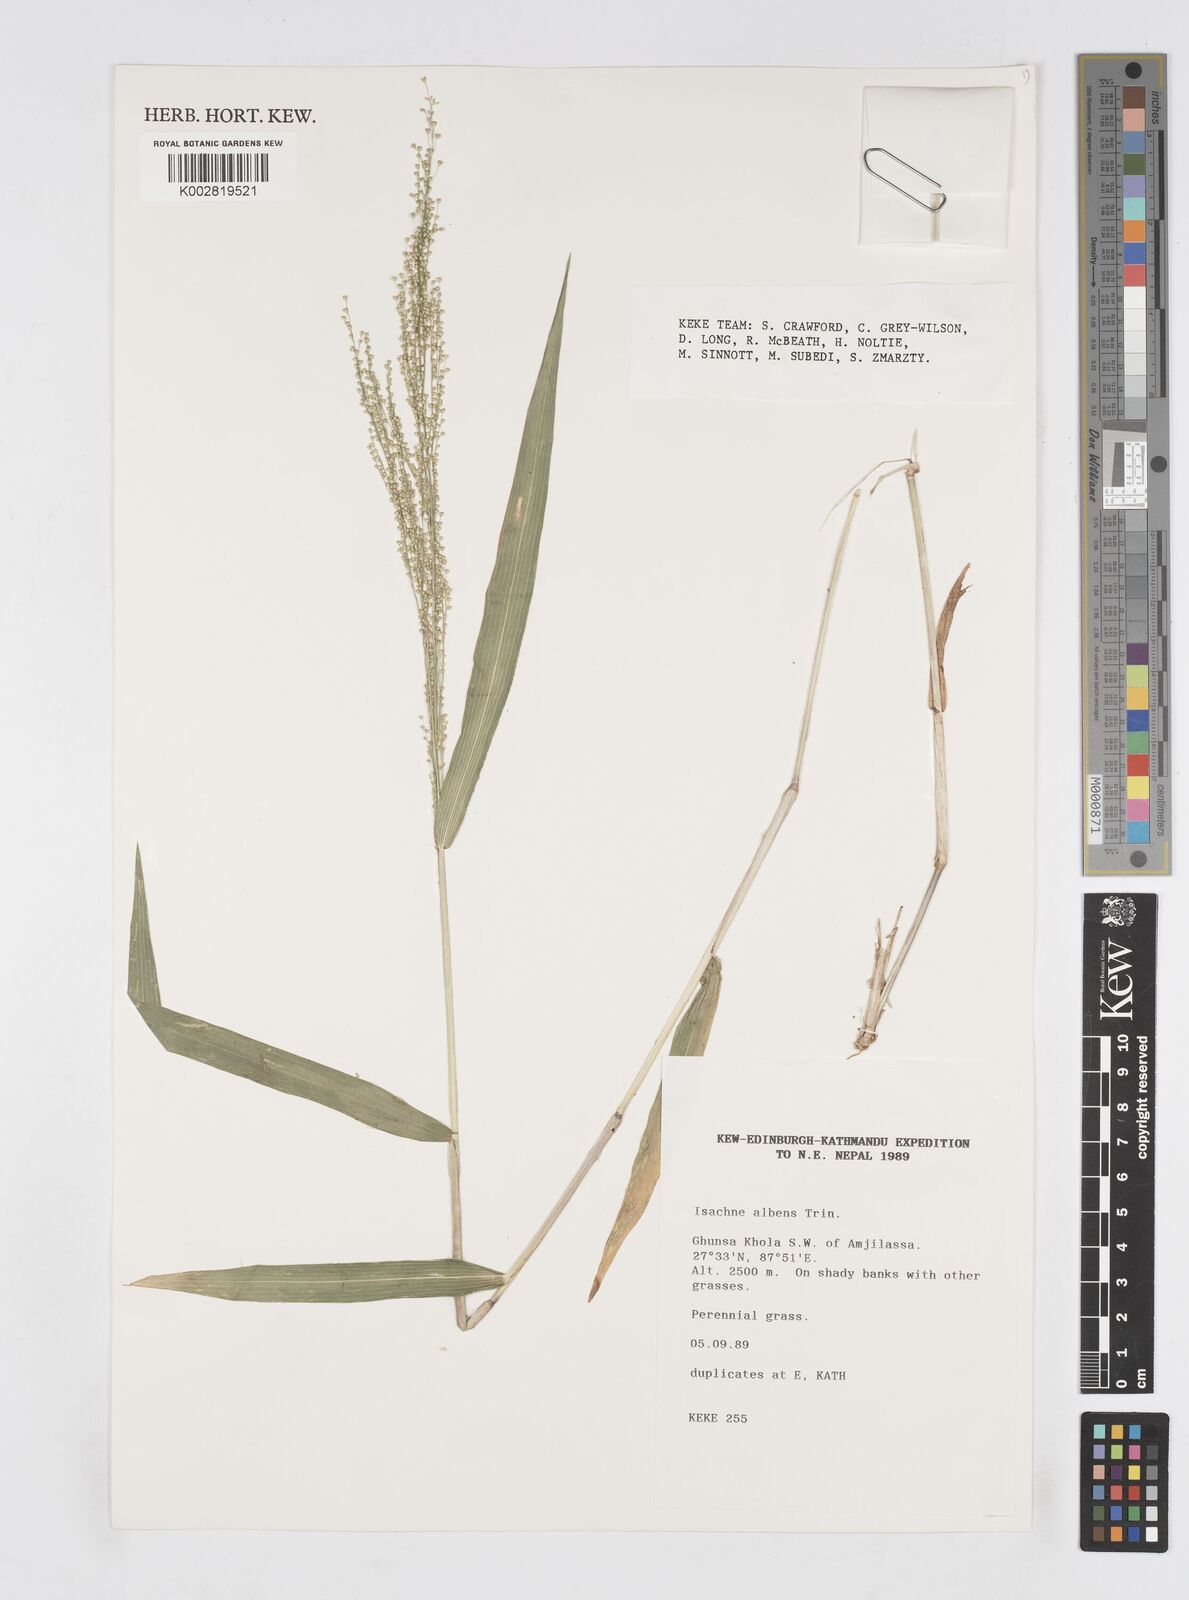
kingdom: Plantae
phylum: Tracheophyta
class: Liliopsida
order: Poales
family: Poaceae
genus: Isachne
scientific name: Isachne albens
